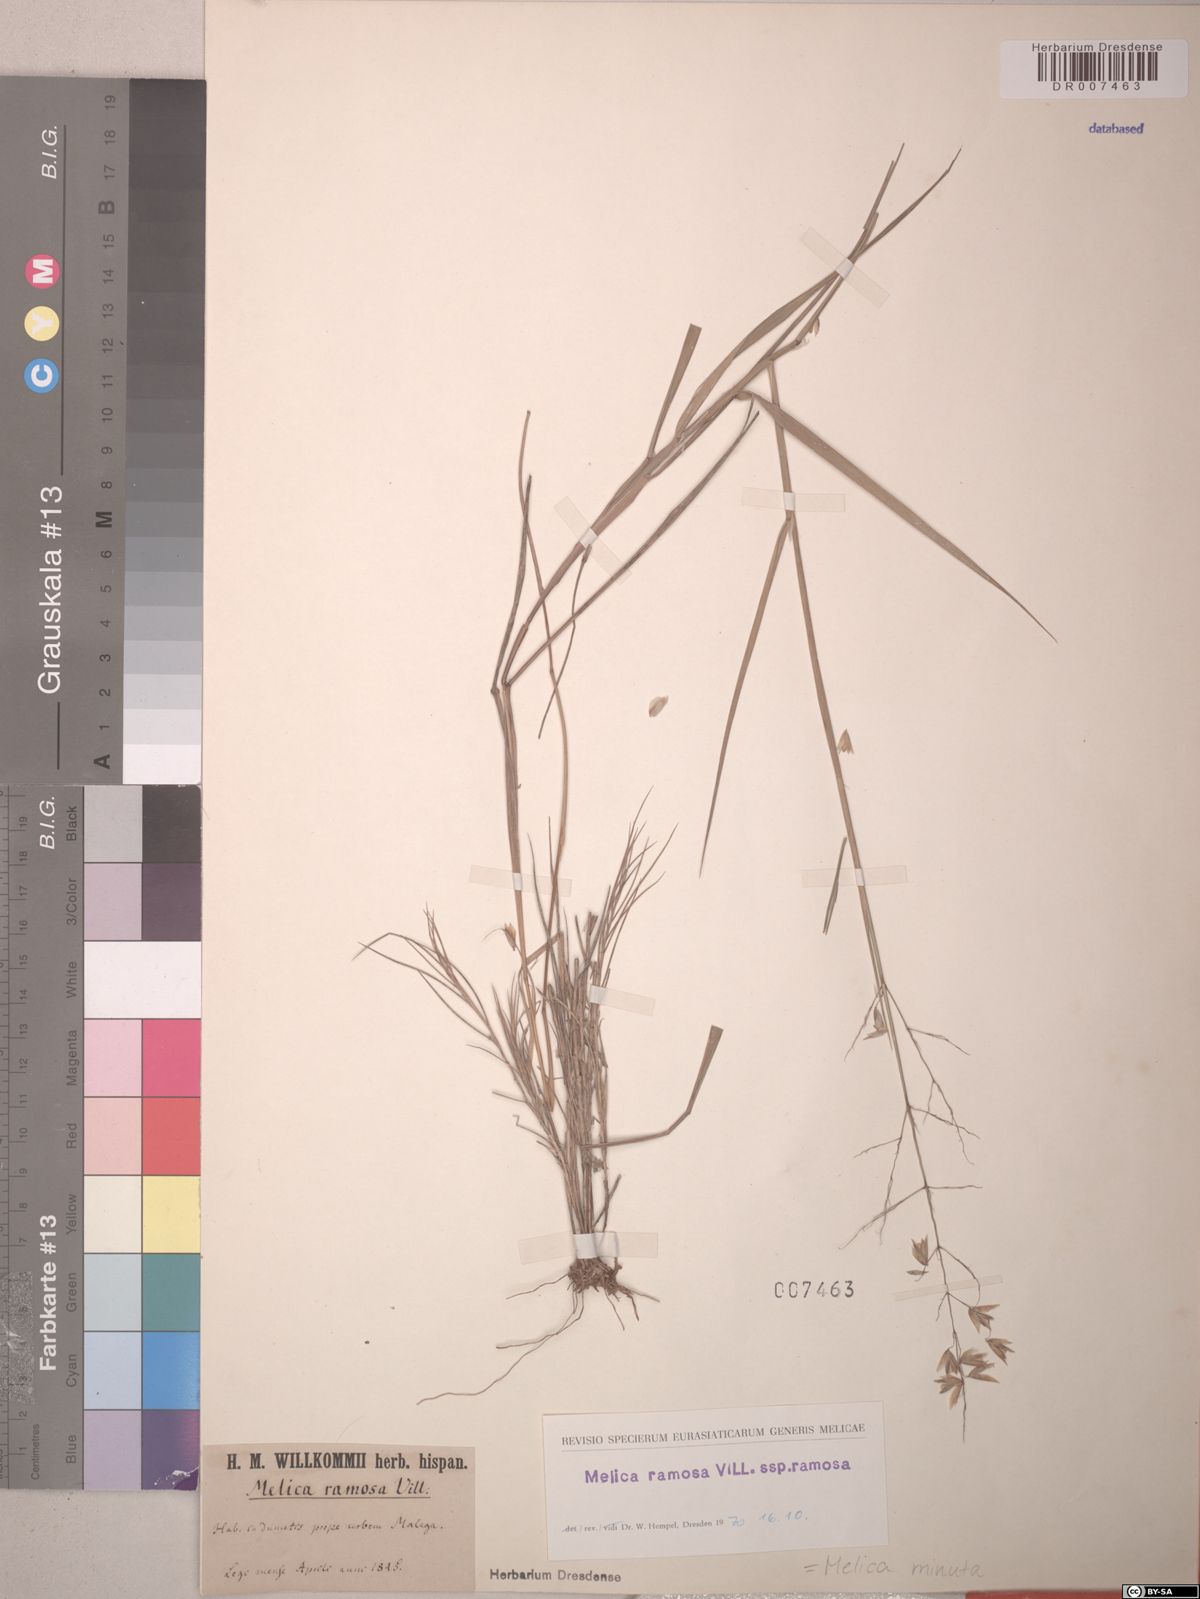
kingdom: Plantae
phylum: Tracheophyta
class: Liliopsida
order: Poales
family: Poaceae
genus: Melica
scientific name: Melica minuta
